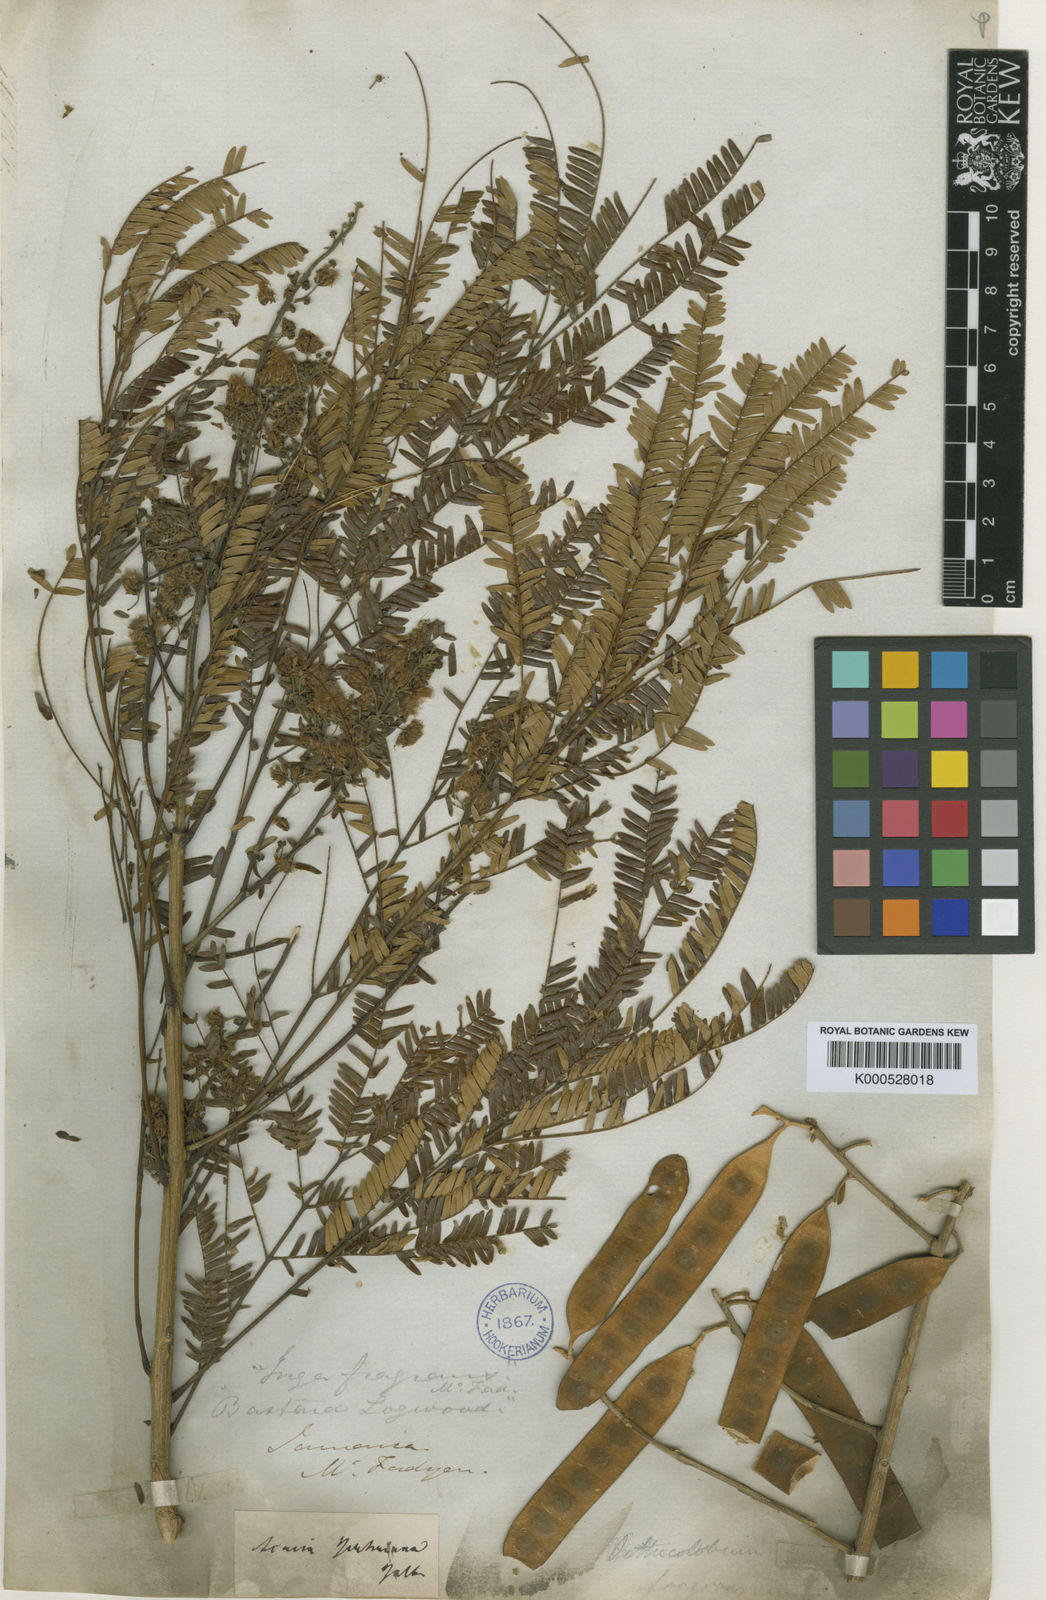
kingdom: Plantae
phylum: Tracheophyta
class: Magnoliopsida
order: Fabales
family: Fabaceae
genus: Albizia
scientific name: Albizia
